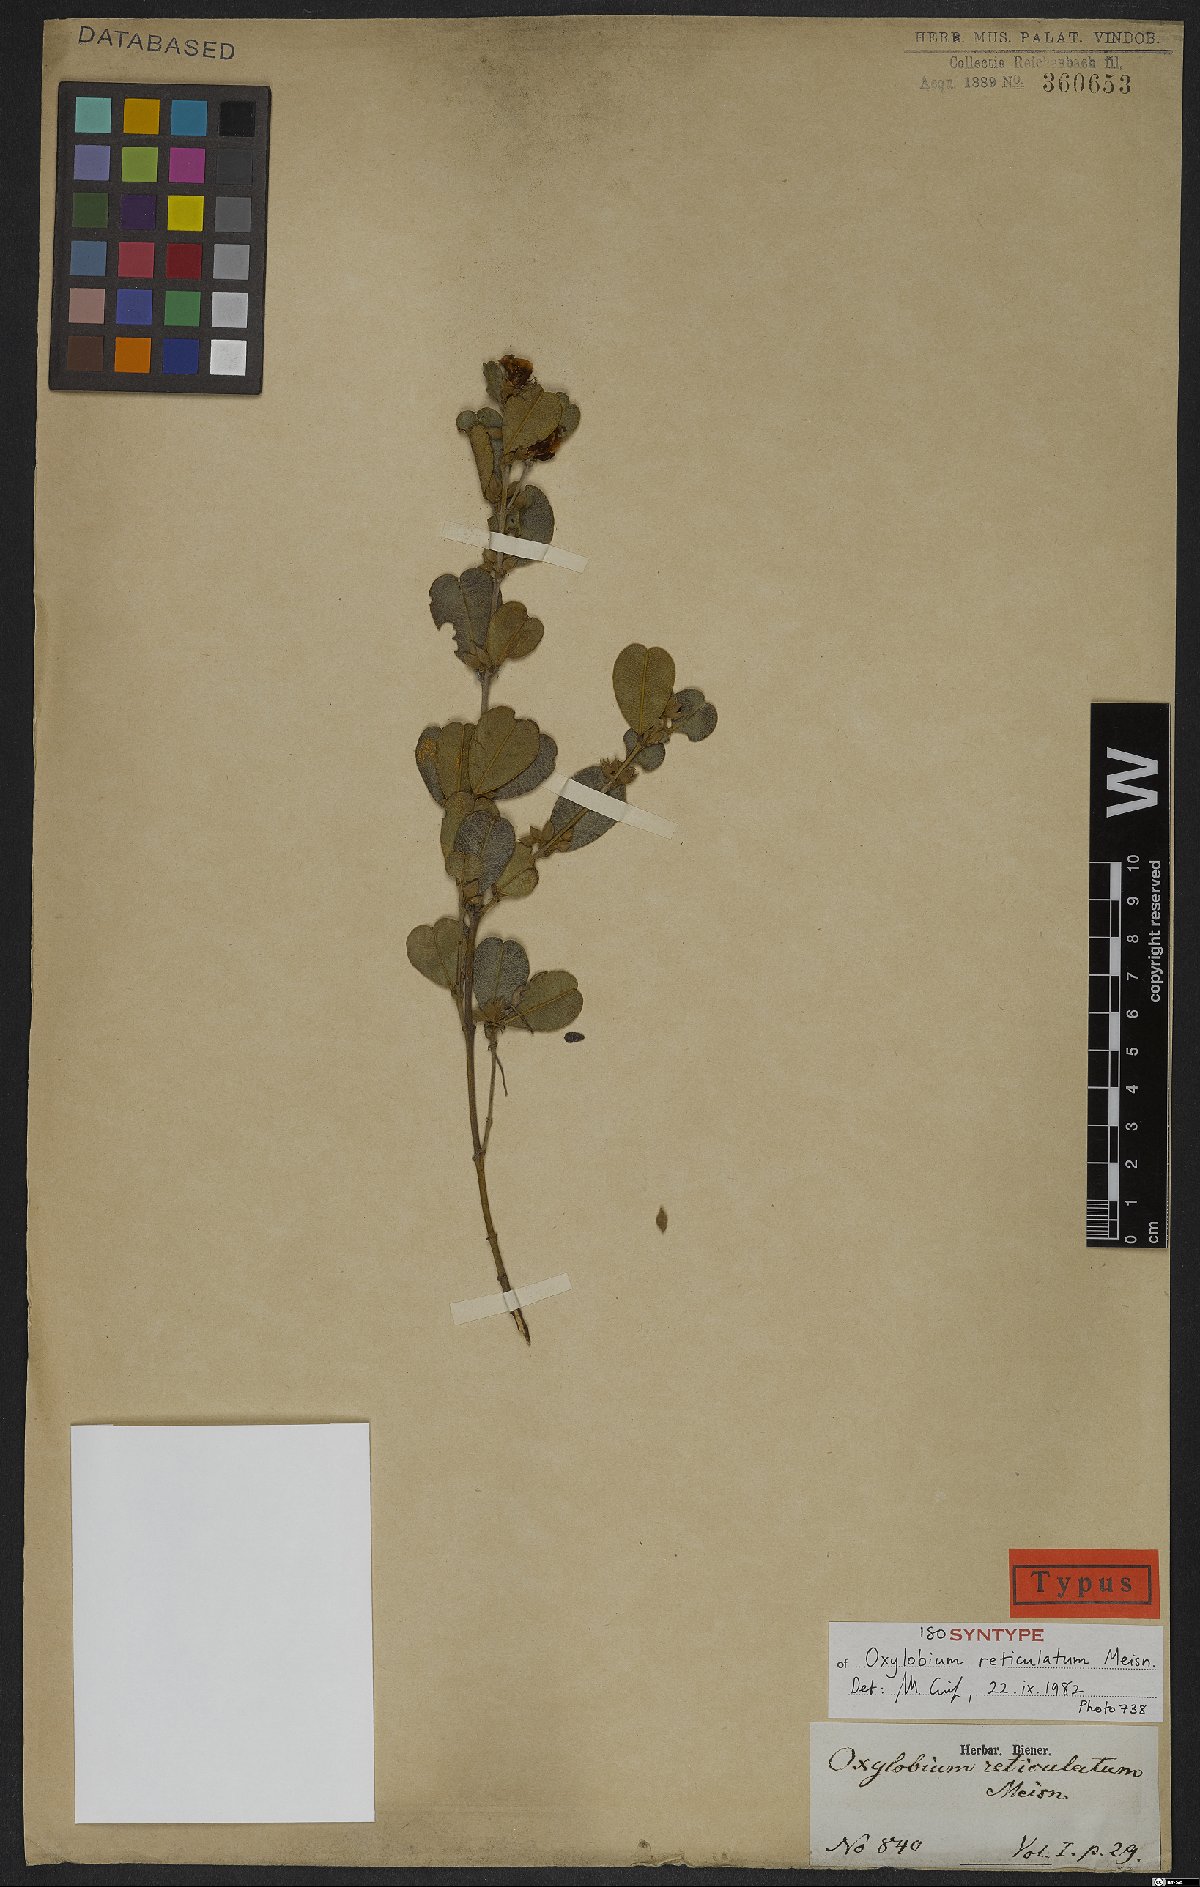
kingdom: Plantae
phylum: Tracheophyta
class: Magnoliopsida
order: Fabales
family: Fabaceae
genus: Gastrolobium
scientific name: Gastrolobium nervosum
